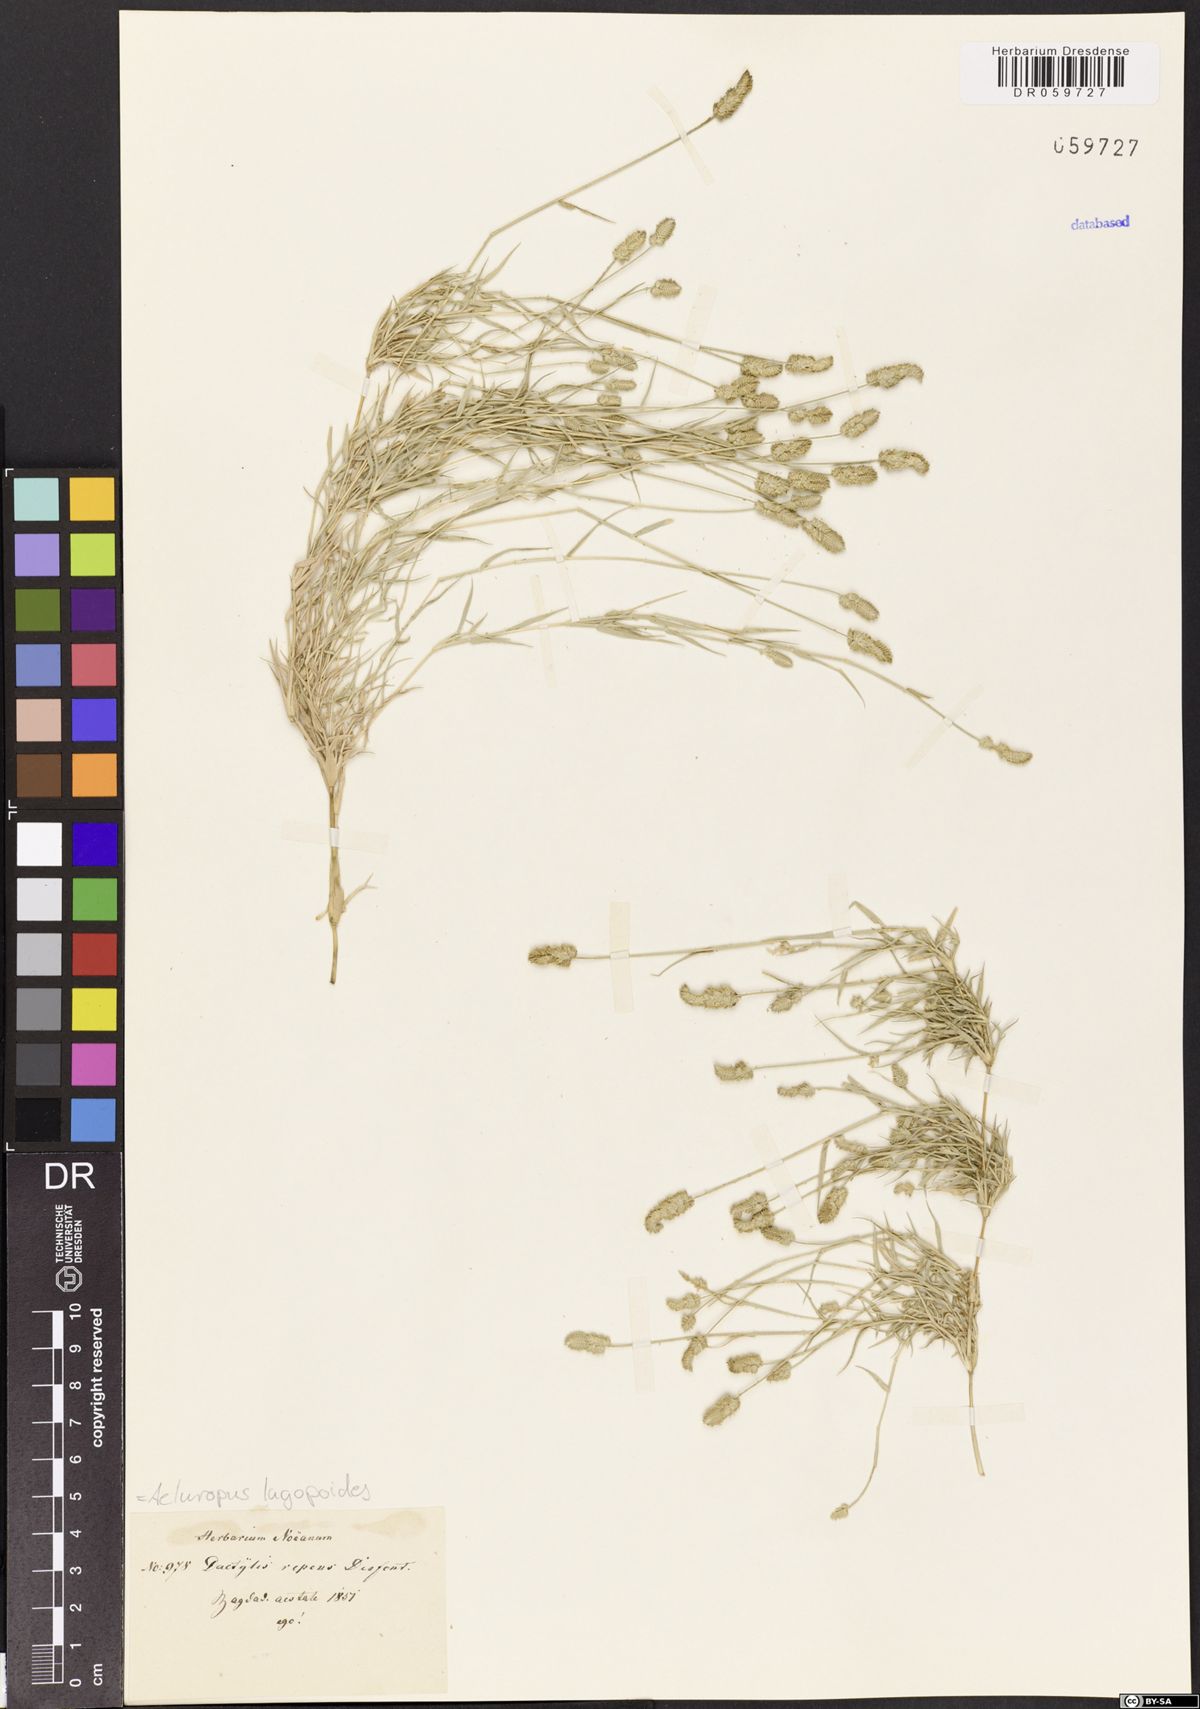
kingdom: Plantae
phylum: Tracheophyta
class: Liliopsida
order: Poales
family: Poaceae
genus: Aeluropus
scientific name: Aeluropus lagopoides
